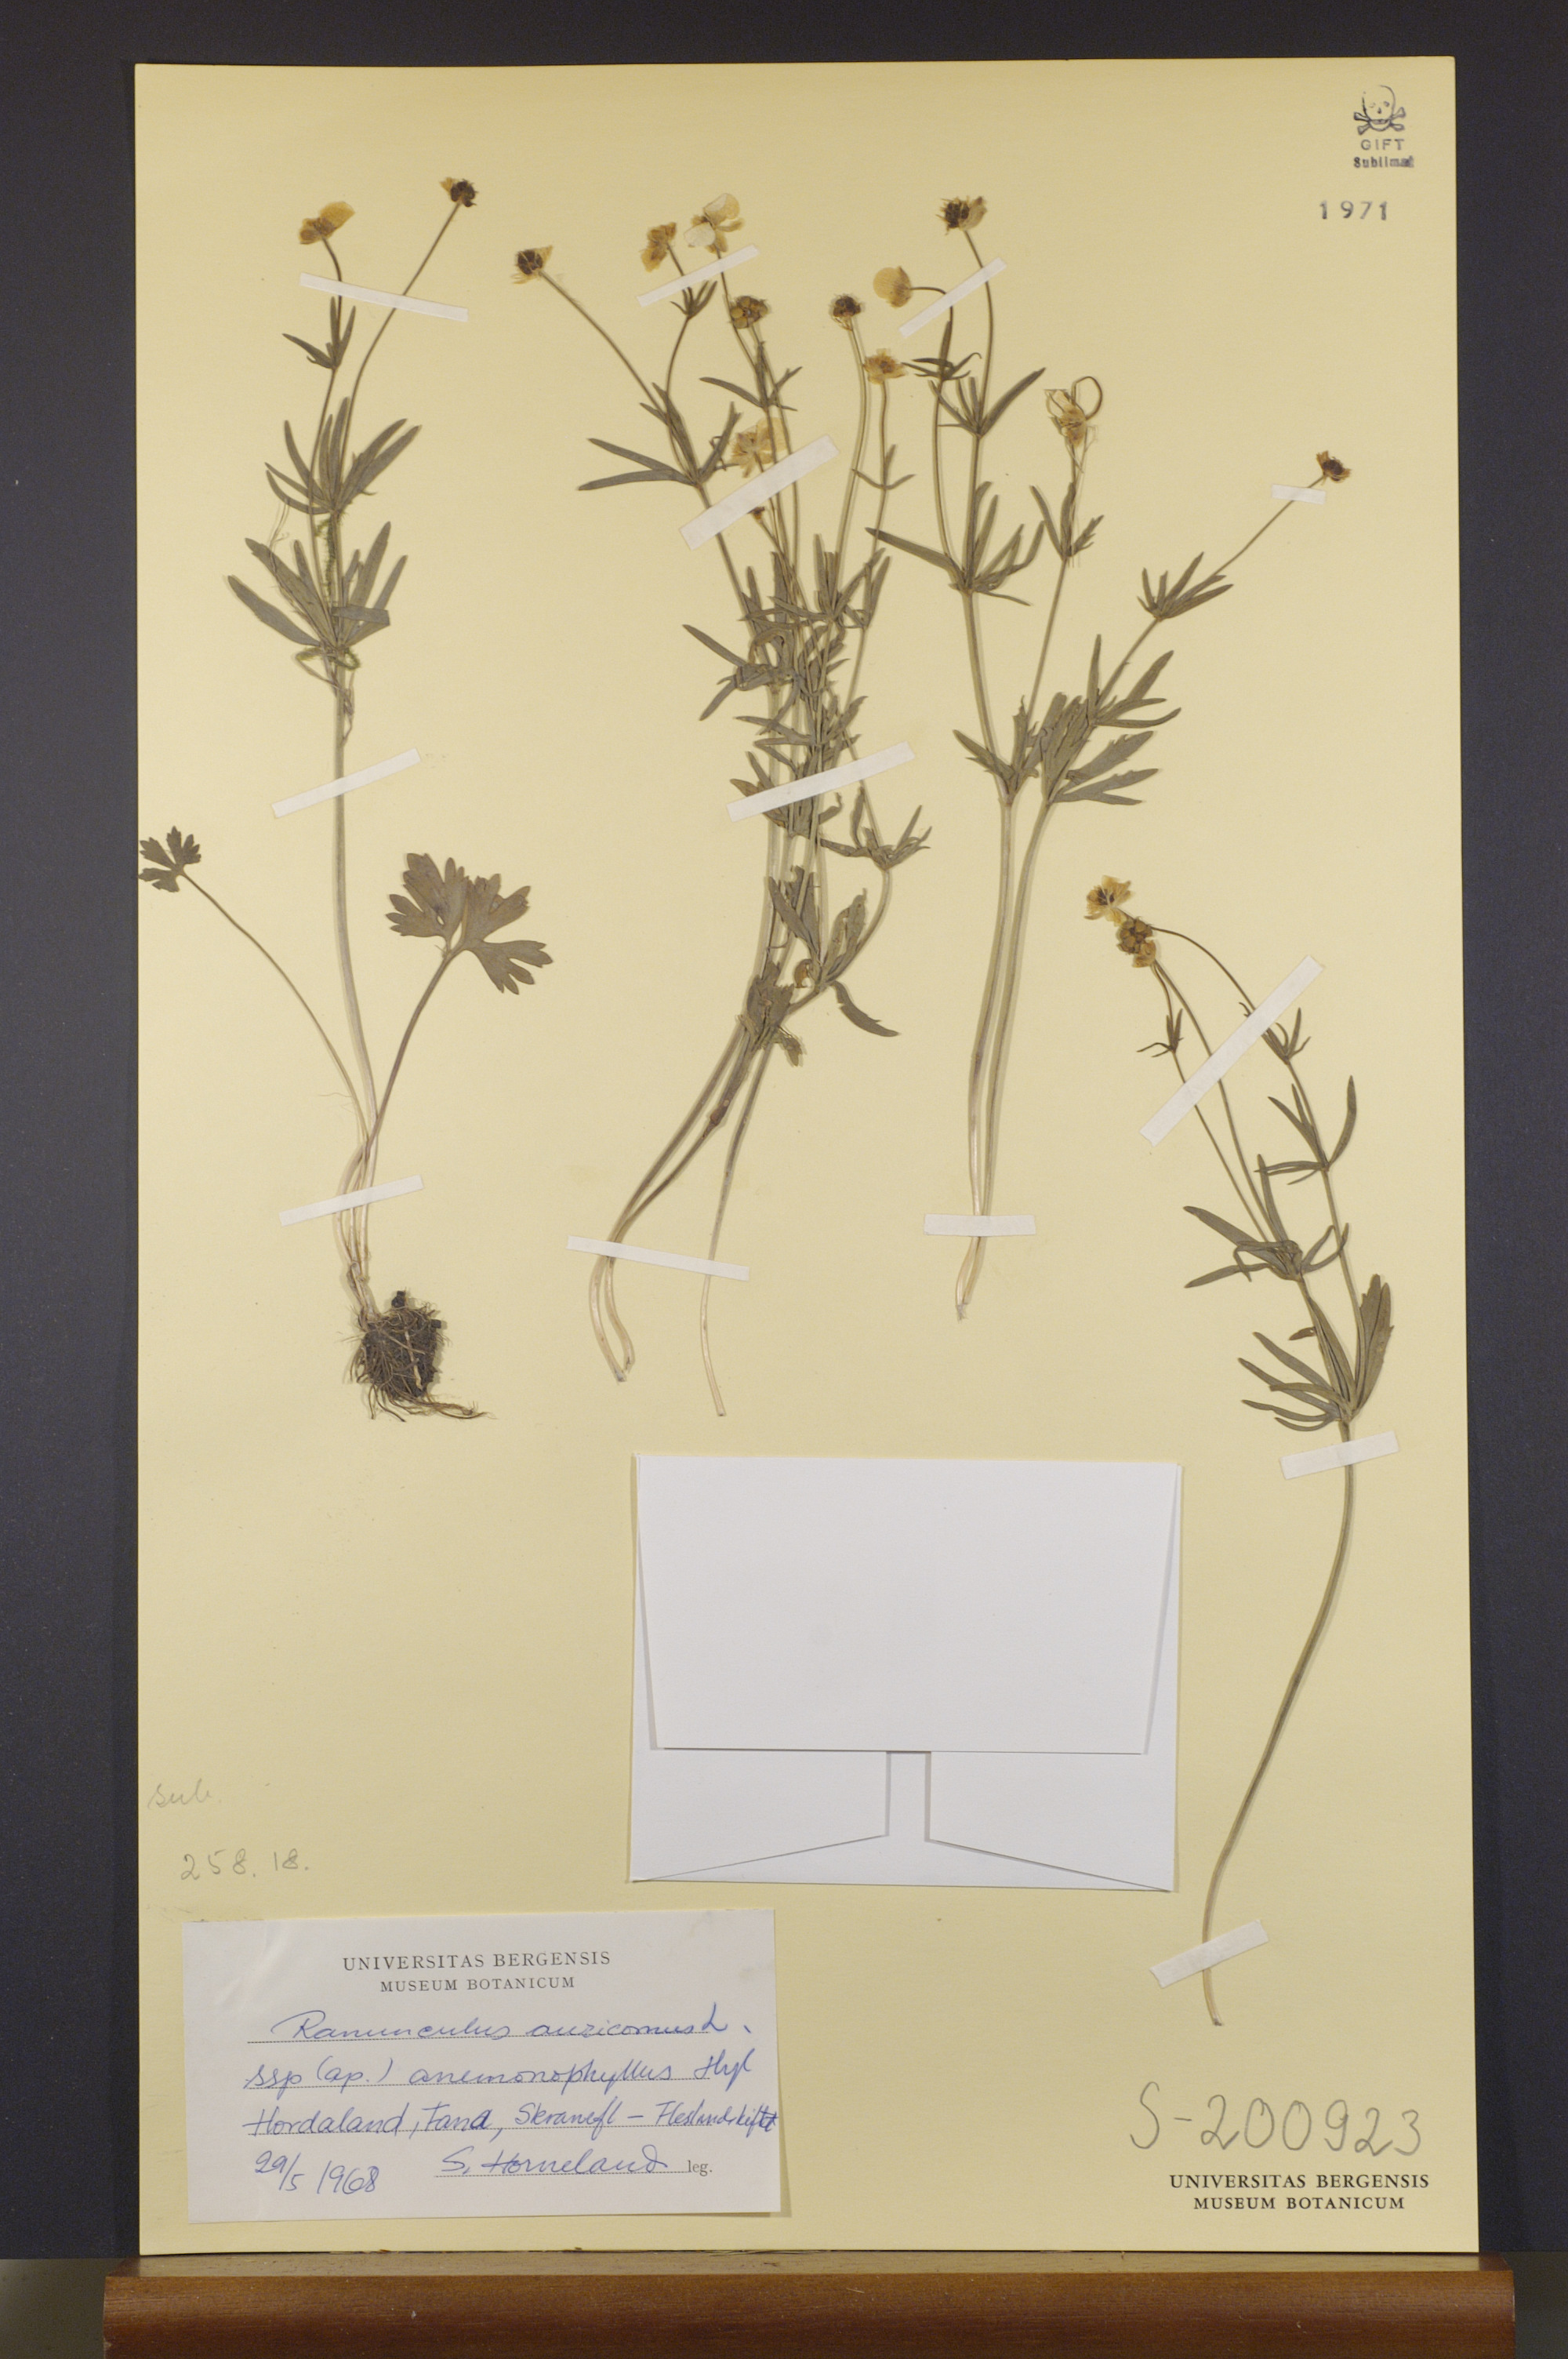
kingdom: Plantae
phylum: Tracheophyta
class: Magnoliopsida
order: Ranunculales
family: Ranunculaceae
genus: Ranunculus
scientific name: Ranunculus anemonophyllus
